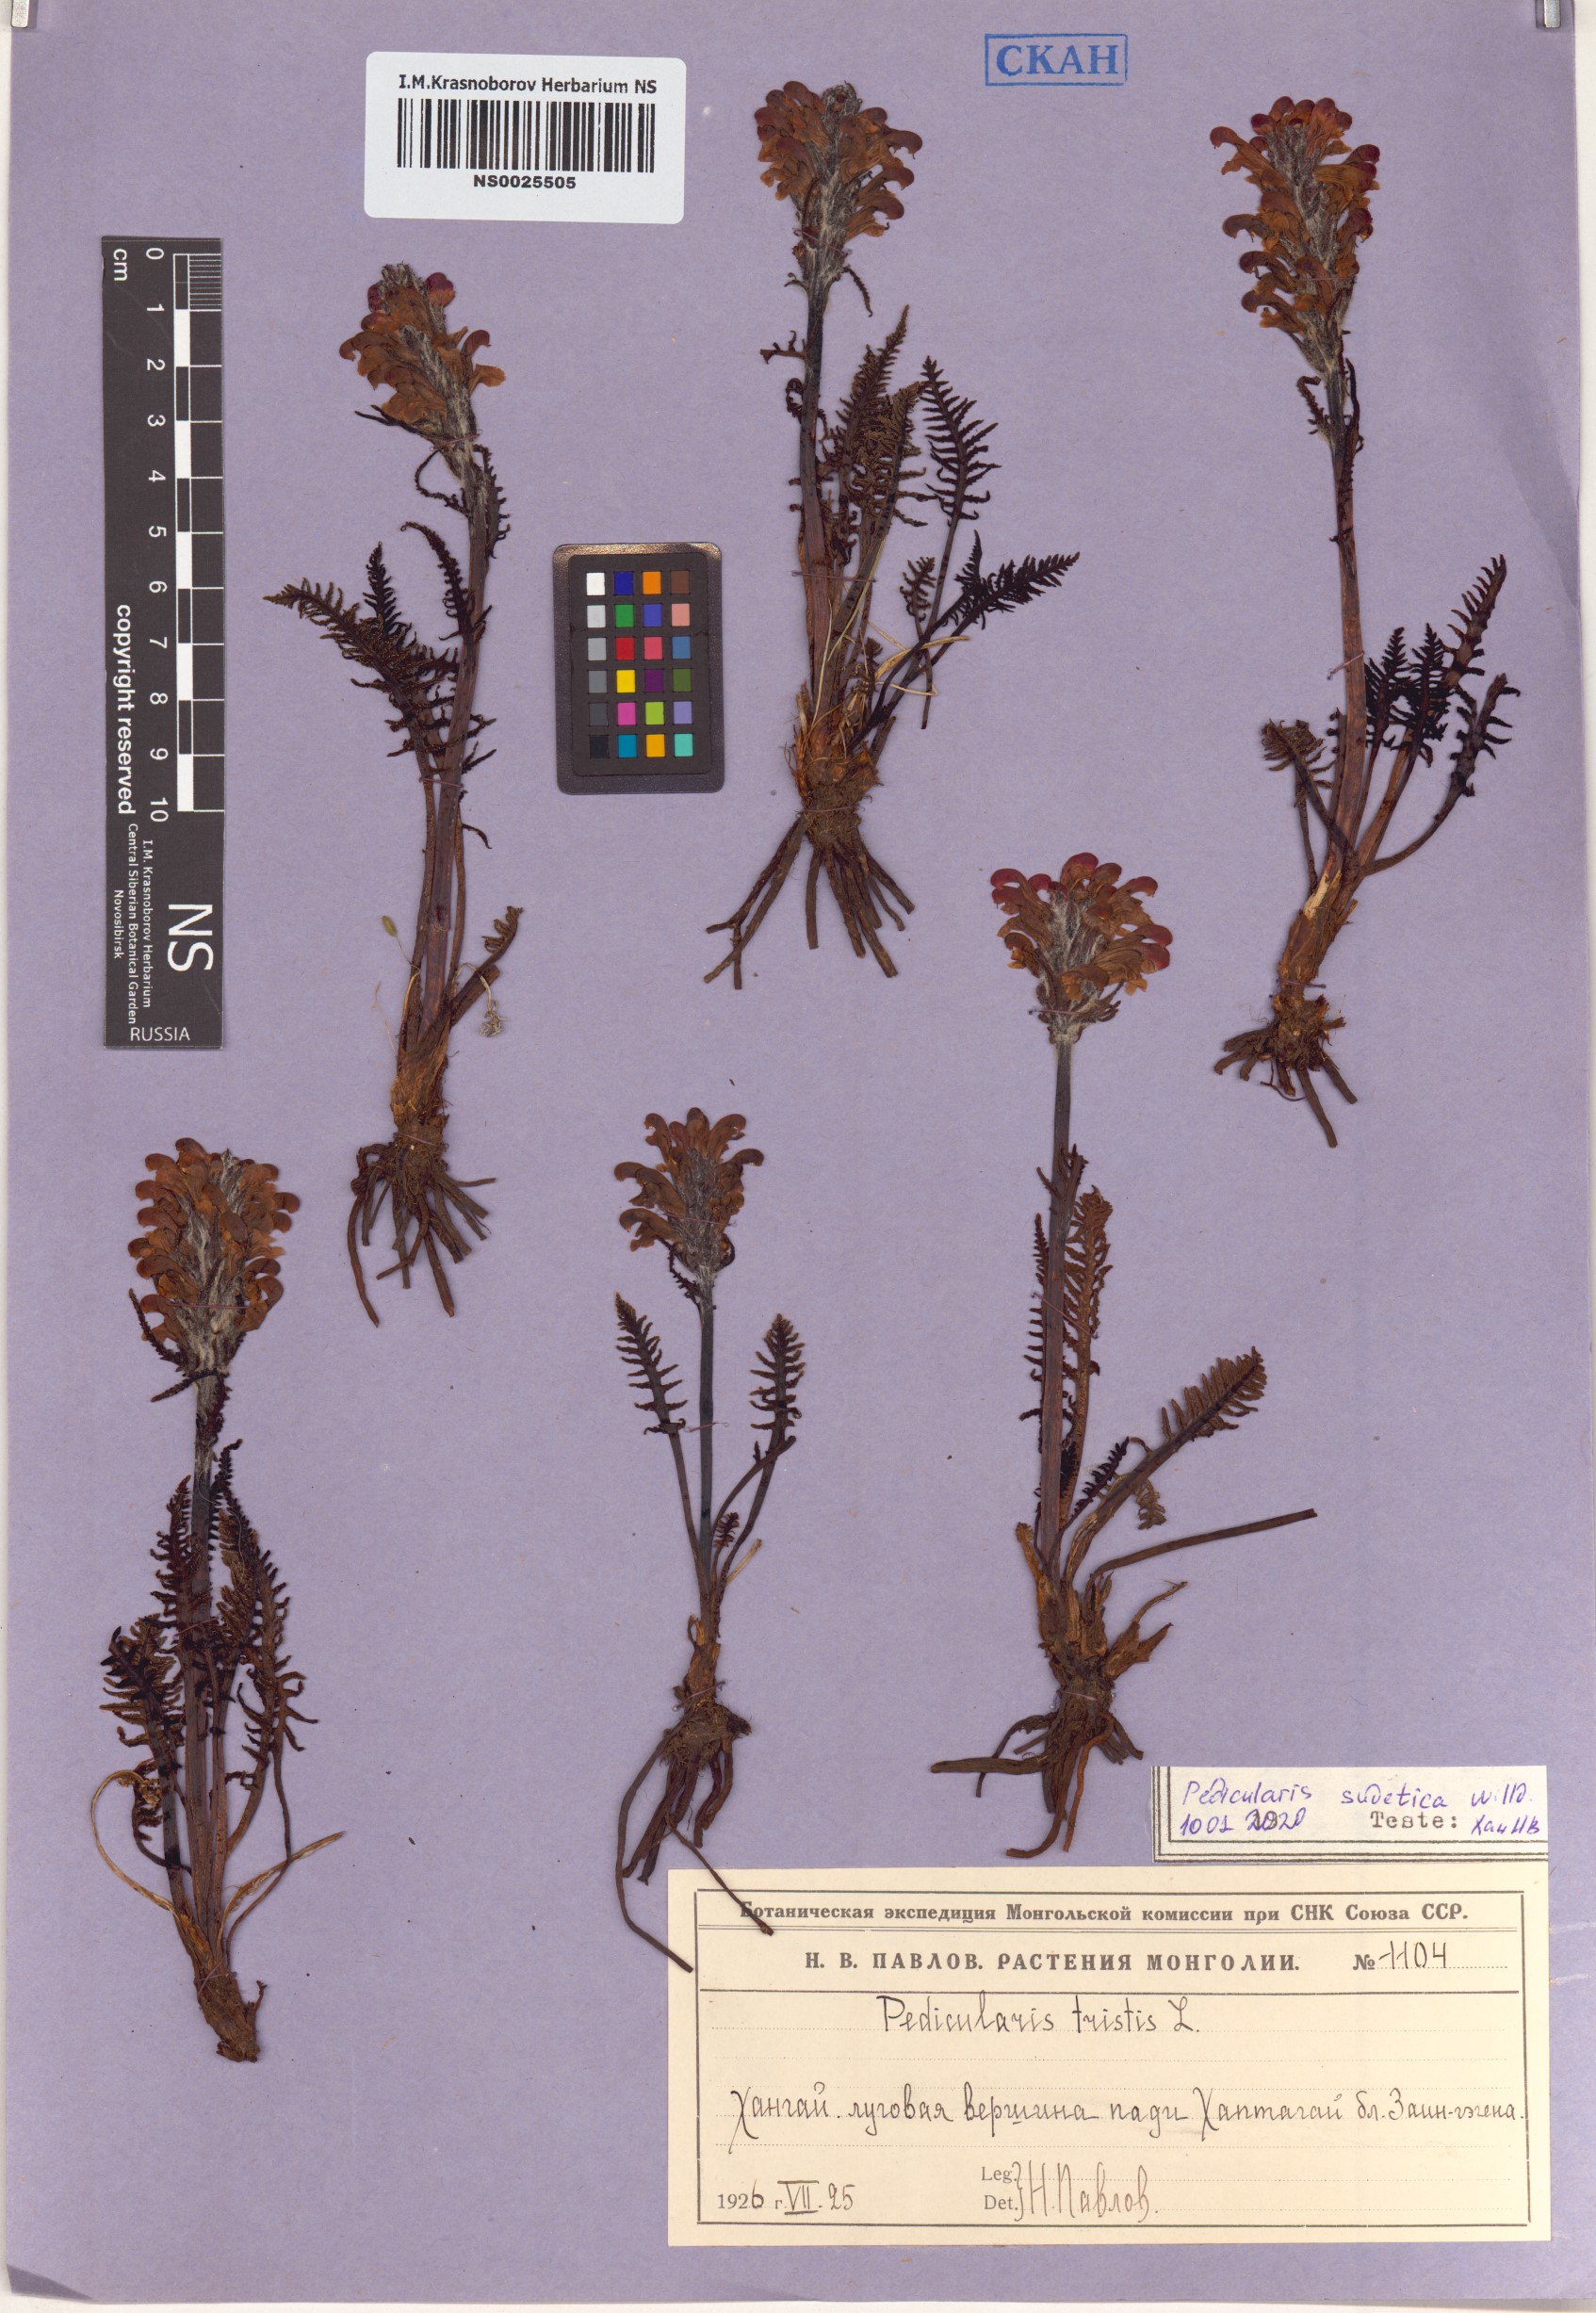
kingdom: Plantae
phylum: Tracheophyta
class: Magnoliopsida
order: Lamiales
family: Orobanchaceae
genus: Pedicularis
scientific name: Pedicularis sudetica
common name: Sudeten lousewort
